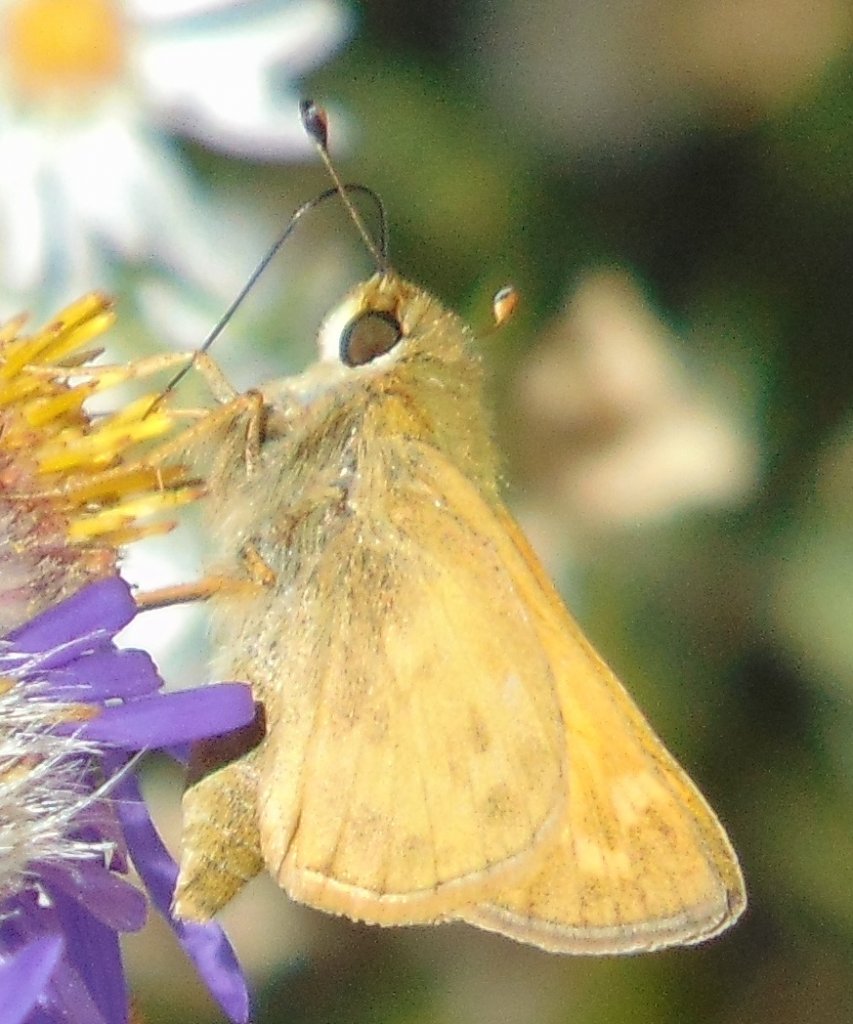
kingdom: Animalia
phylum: Arthropoda
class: Insecta
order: Lepidoptera
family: Hesperiidae
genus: Atalopedes
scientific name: Atalopedes campestris
